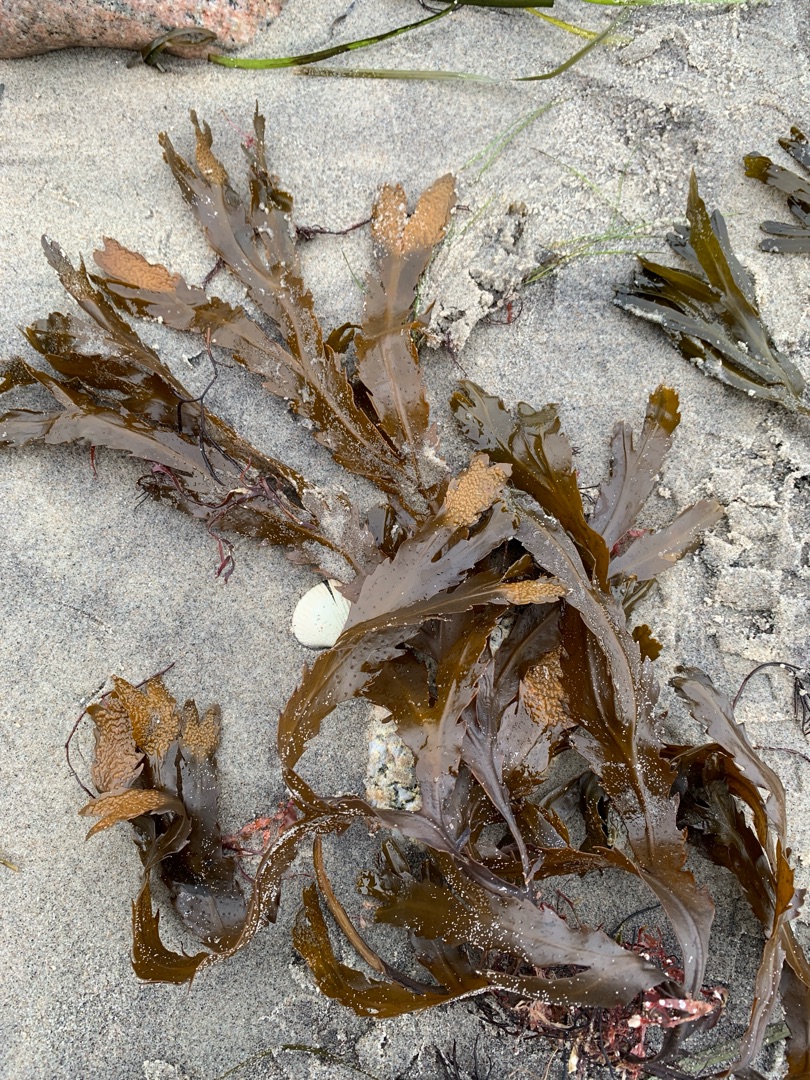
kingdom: Chromista
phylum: Ochrophyta
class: Phaeophyceae
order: Fucales
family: Fucaceae
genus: Fucus
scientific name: Fucus serratus
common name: Savtang
